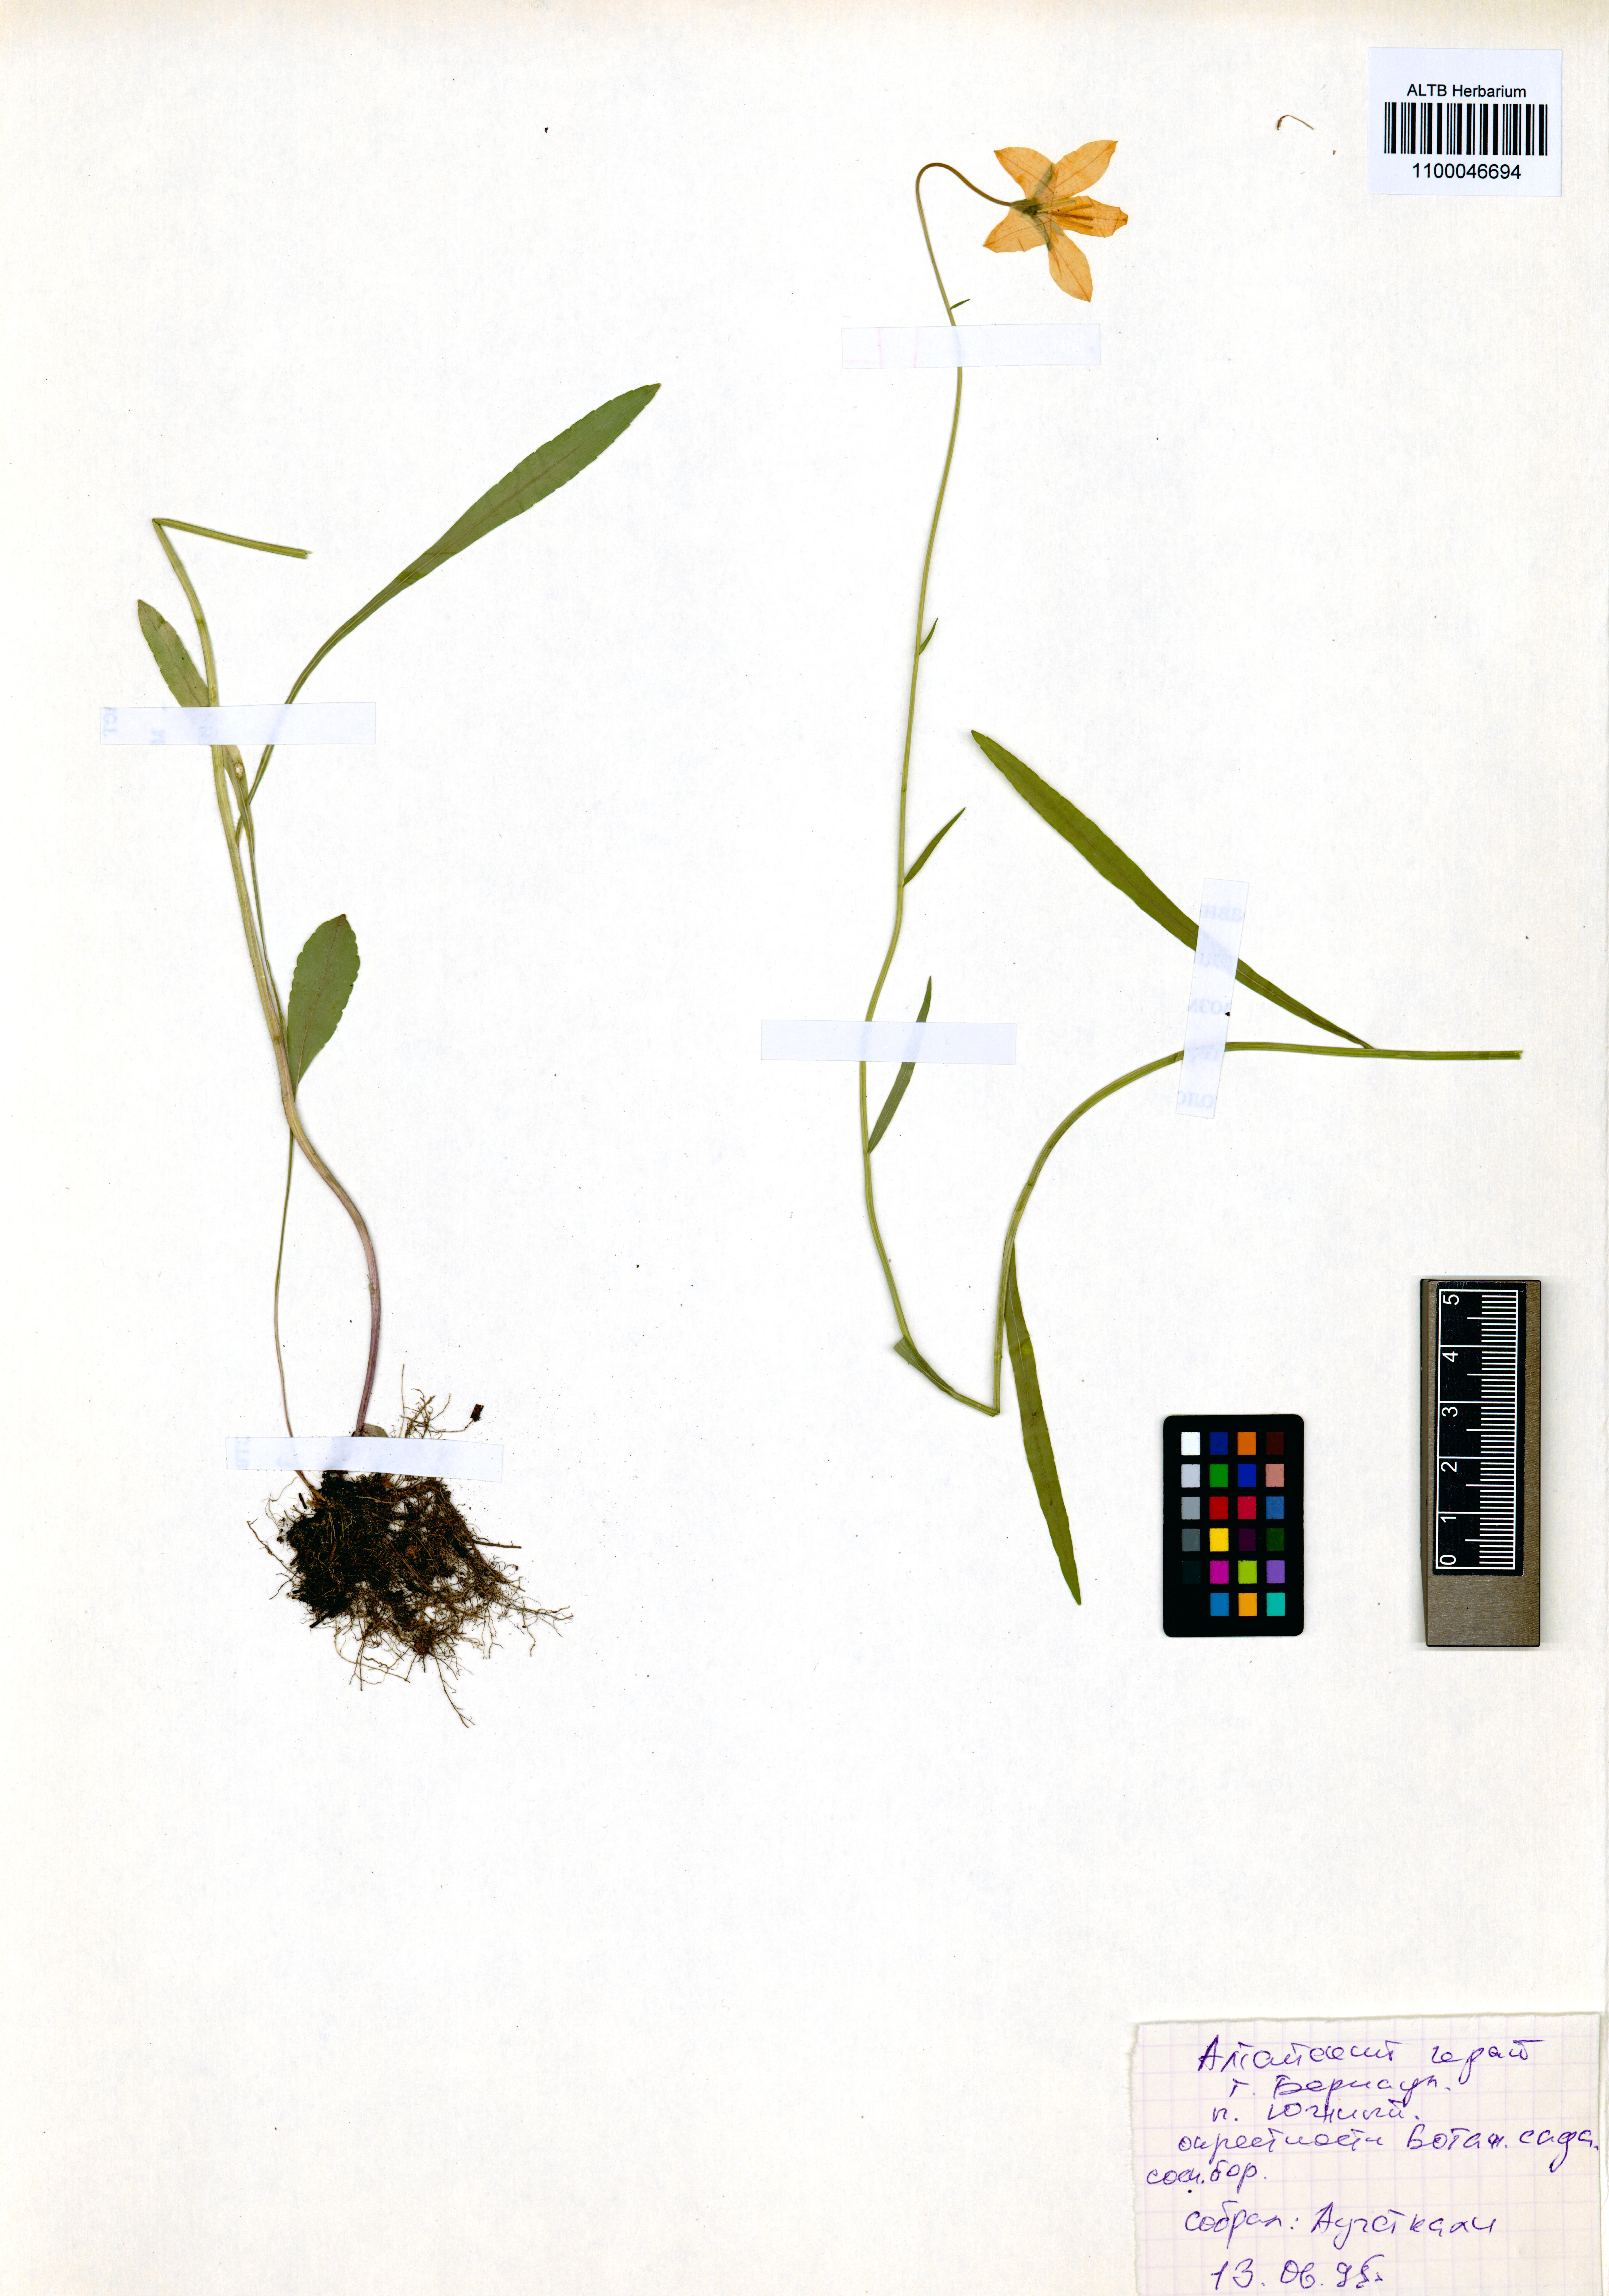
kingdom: Plantae
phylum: Tracheophyta
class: Magnoliopsida
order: Asterales
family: Campanulaceae
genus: Campanula
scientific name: Campanula stevenii
